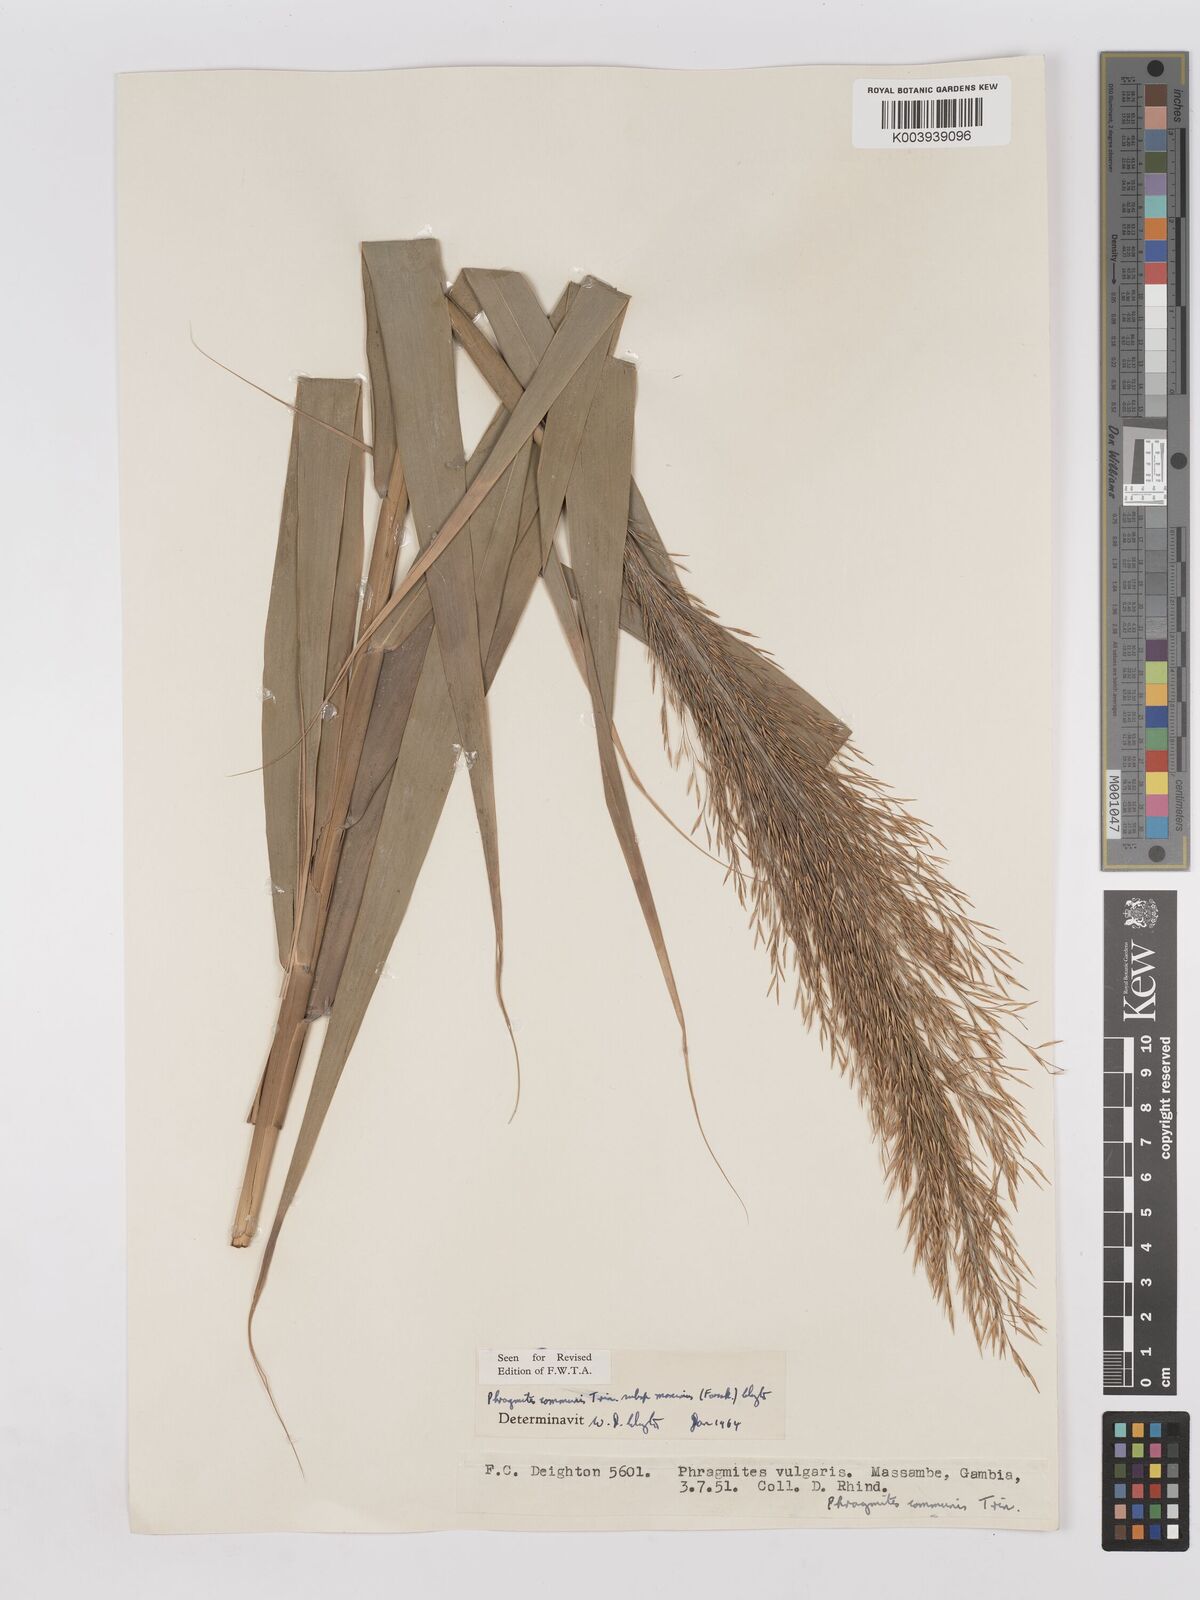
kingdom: Plantae
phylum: Tracheophyta
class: Liliopsida
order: Poales
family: Poaceae
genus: Phragmites
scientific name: Phragmites australis
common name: Common reed
